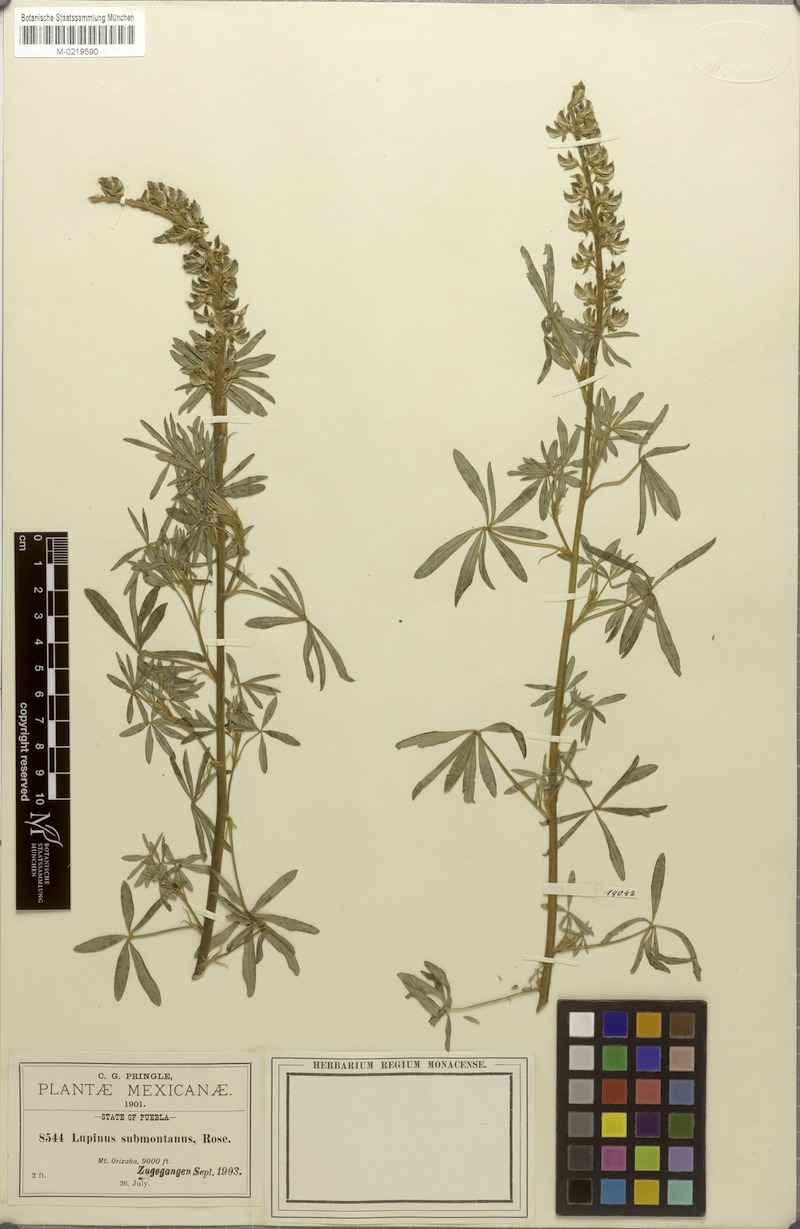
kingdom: Plantae
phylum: Tracheophyta
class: Magnoliopsida
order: Fabales
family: Fabaceae
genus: Lupinus
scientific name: Lupinus glabratus
